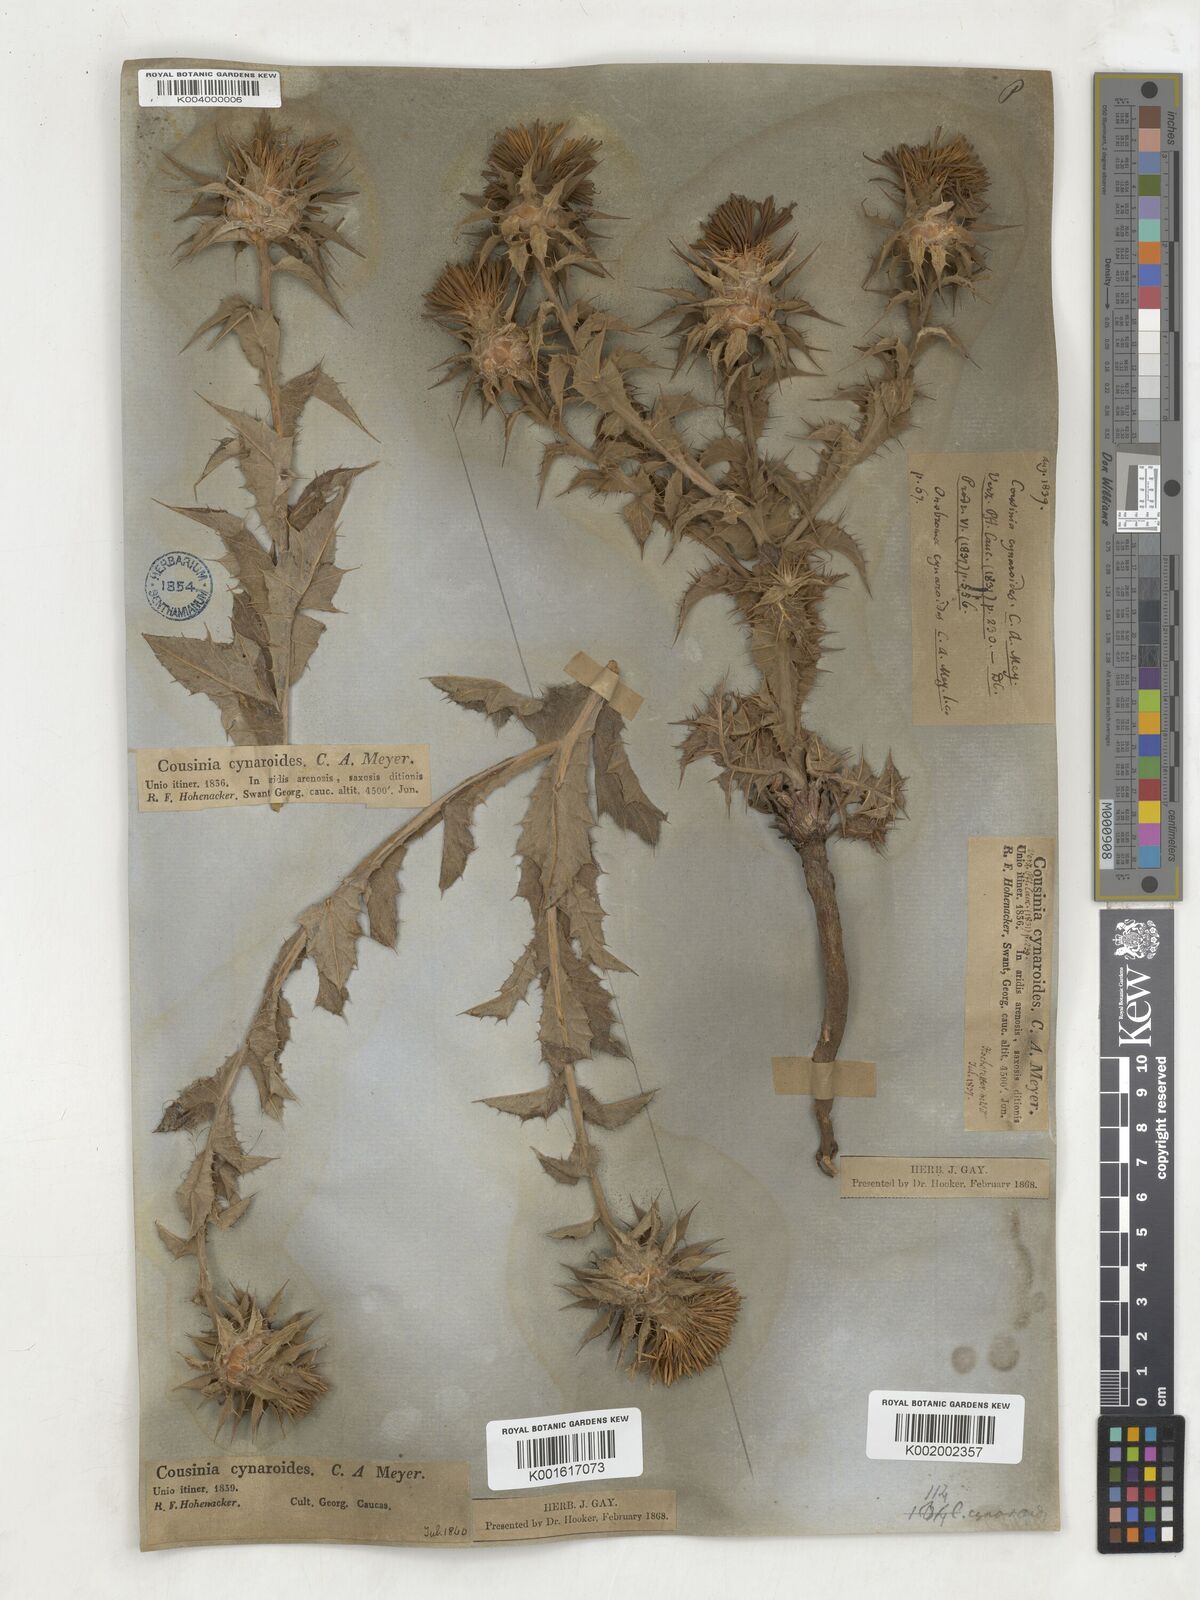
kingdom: Plantae
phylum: Tracheophyta
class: Magnoliopsida
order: Asterales
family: Asteraceae
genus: Cousinia
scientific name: Cousinia cynaroides
